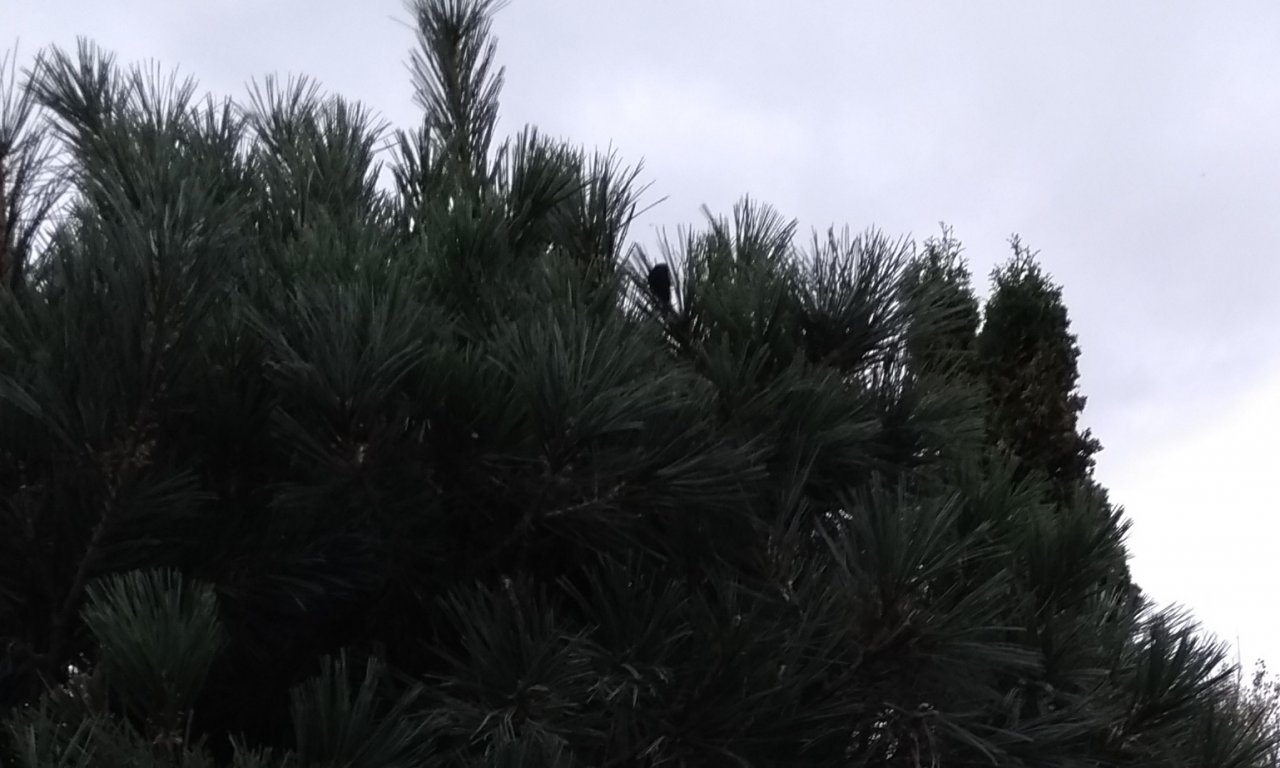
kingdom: Animalia
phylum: Arthropoda
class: Insecta
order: Lepidoptera
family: Nymphalidae
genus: Nymphalis
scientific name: Nymphalis antiopa
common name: Mourning Cloak
